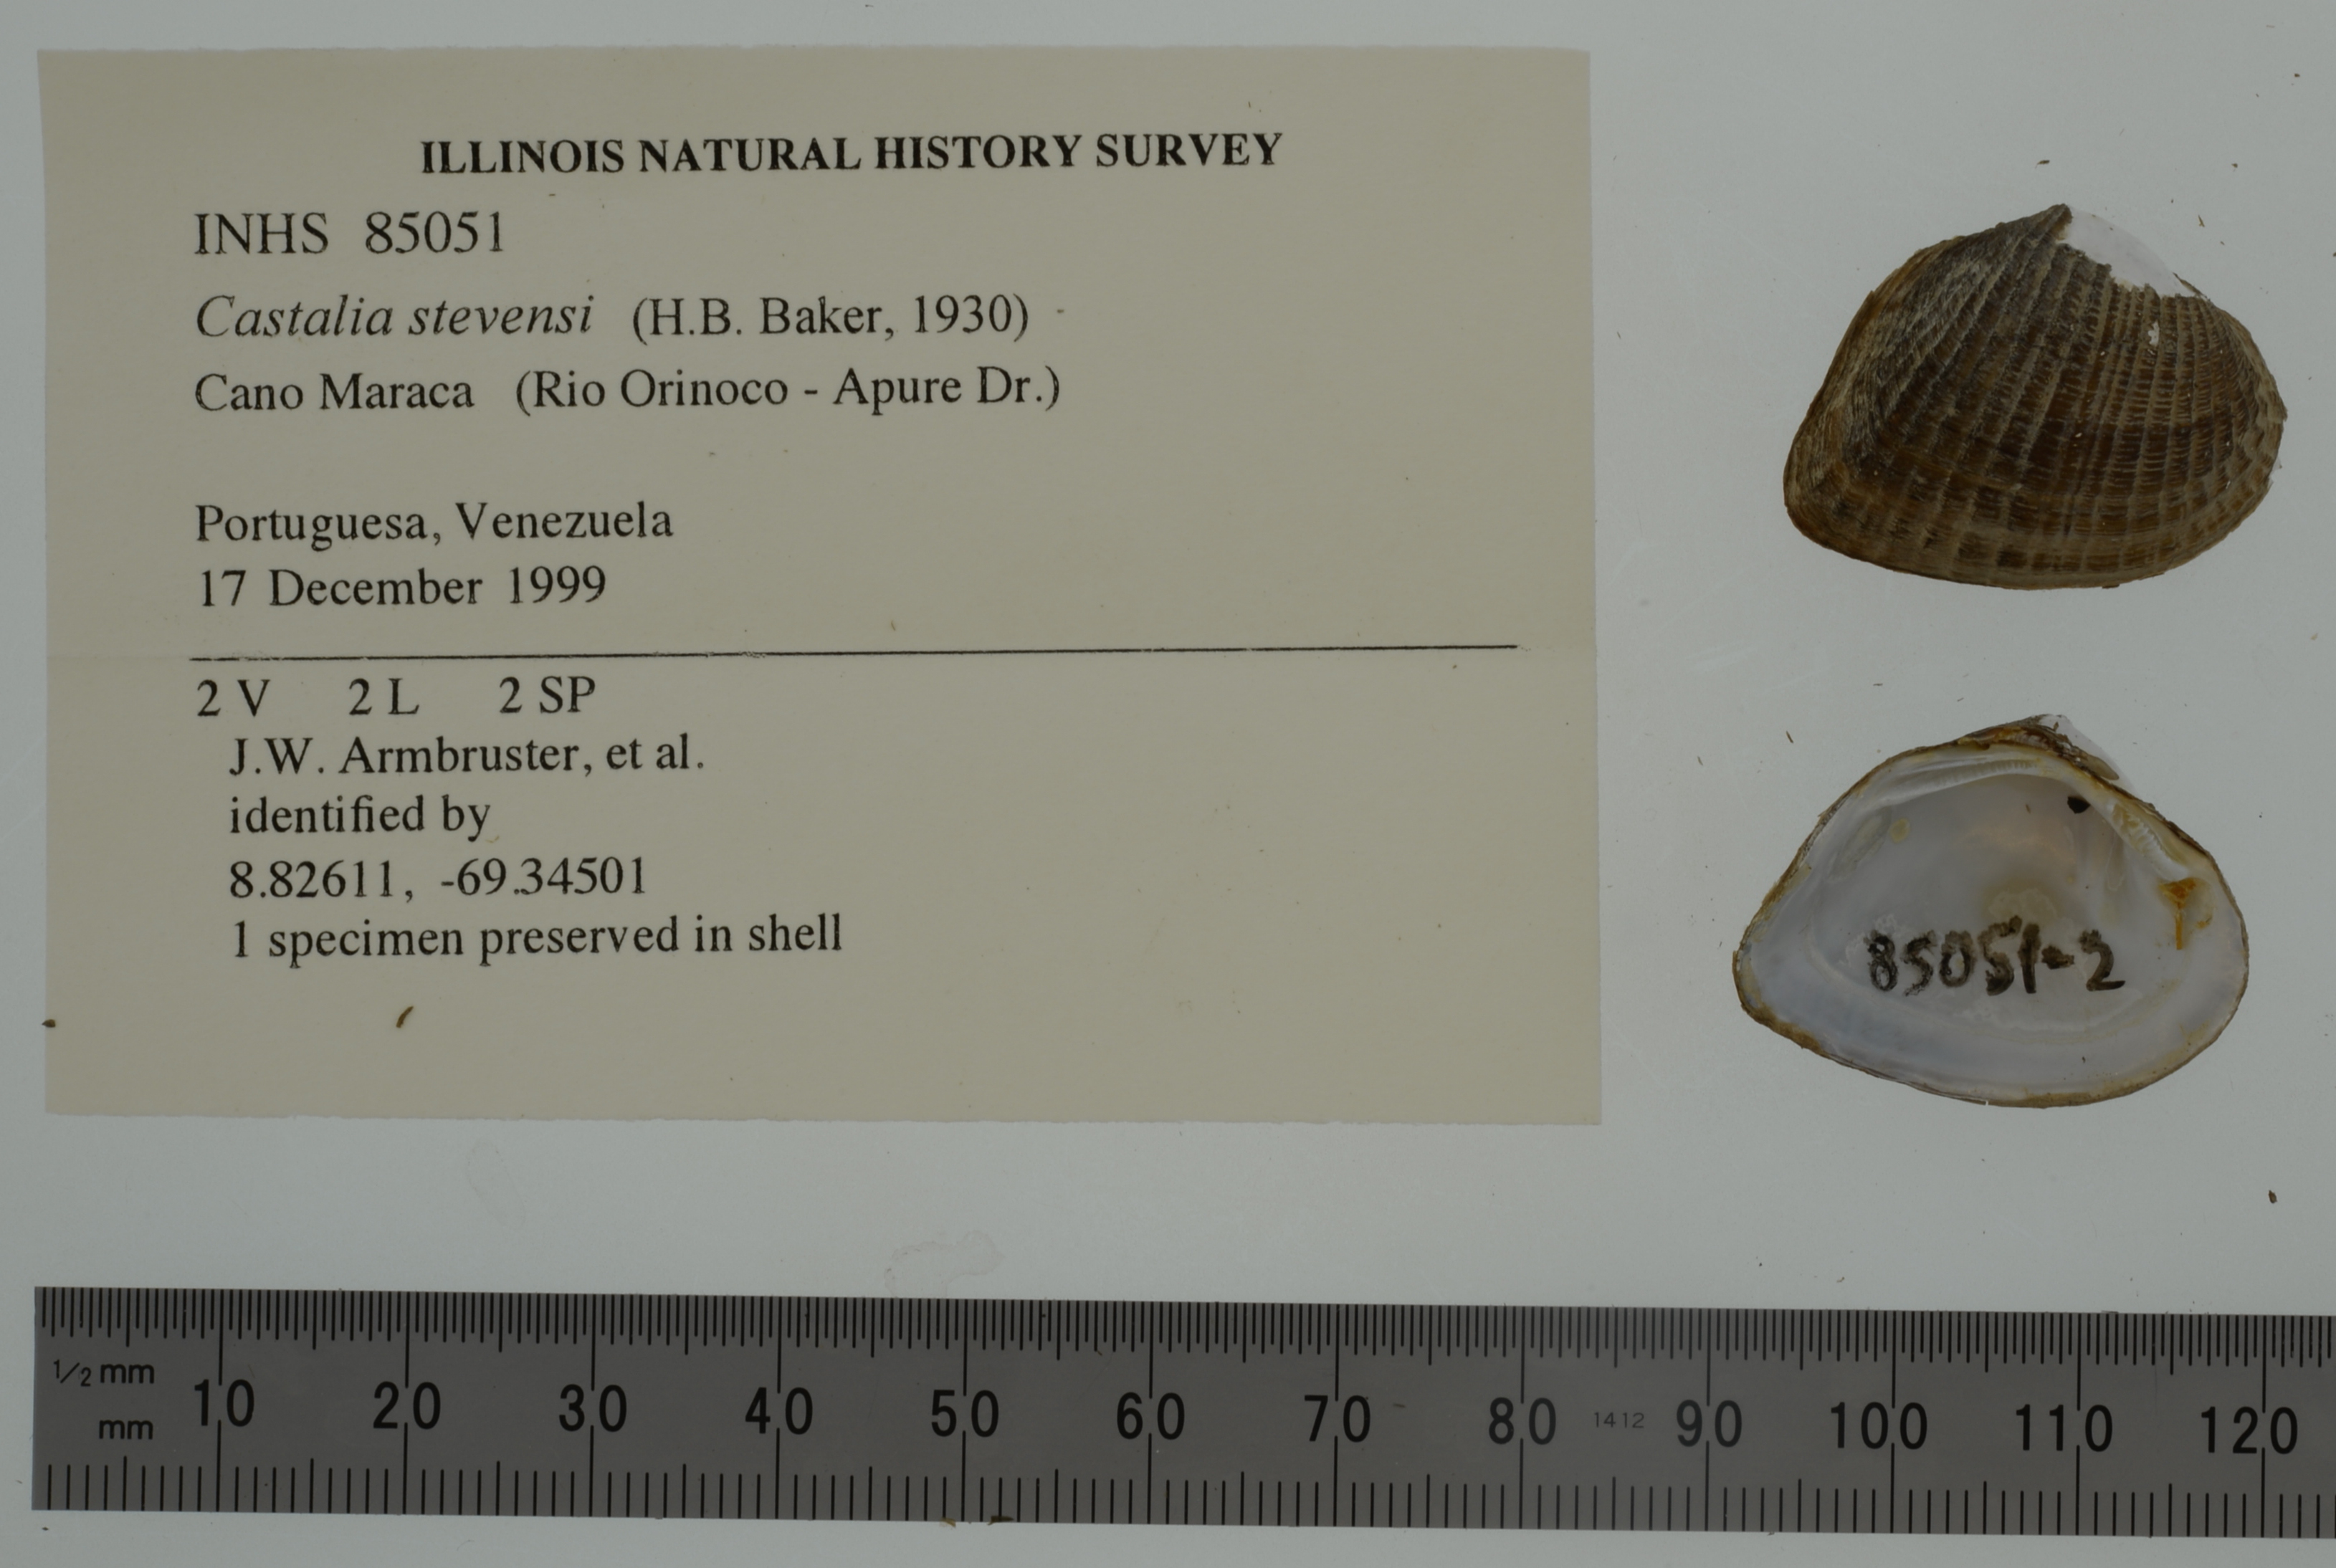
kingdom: Animalia
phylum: Mollusca
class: Bivalvia
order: Unionida
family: Hyriidae
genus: Castalia
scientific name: Castalia stevensi
